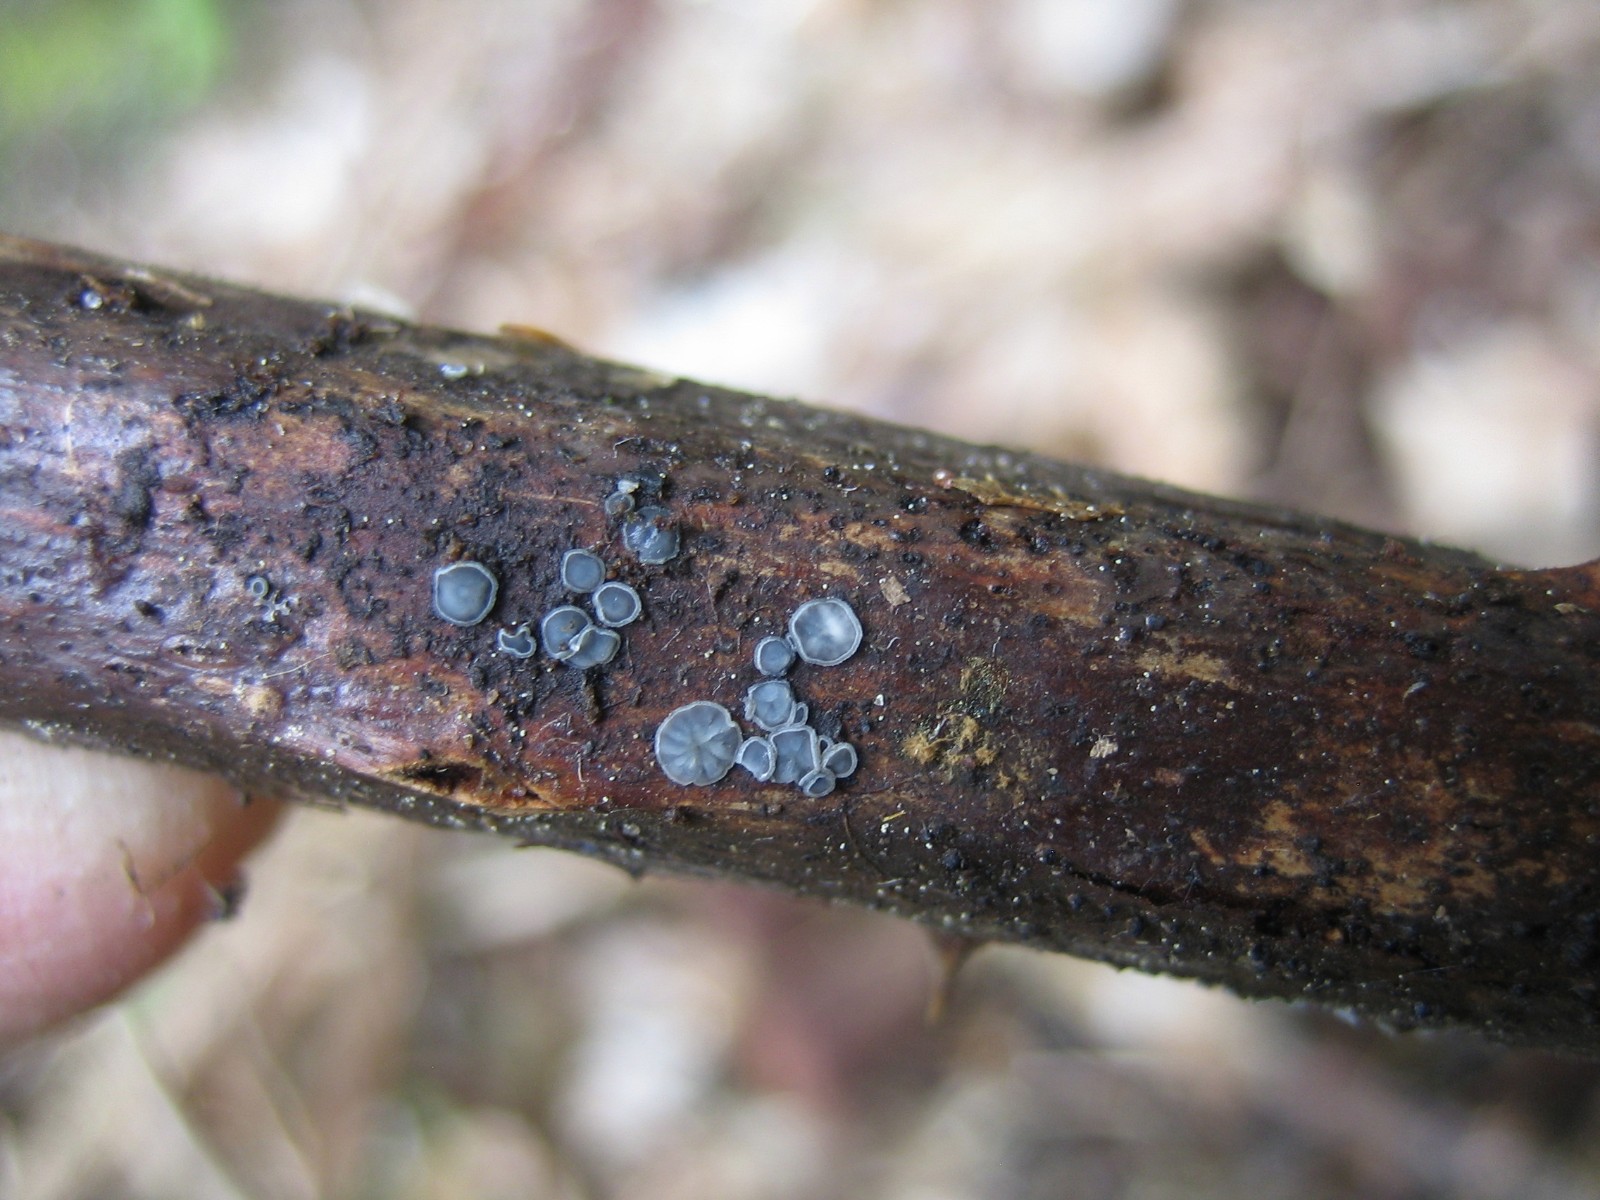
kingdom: Fungi
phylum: Ascomycota
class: Leotiomycetes
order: Helotiales
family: Dermateaceae
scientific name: Dermateaceae
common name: gråskivefamilien
